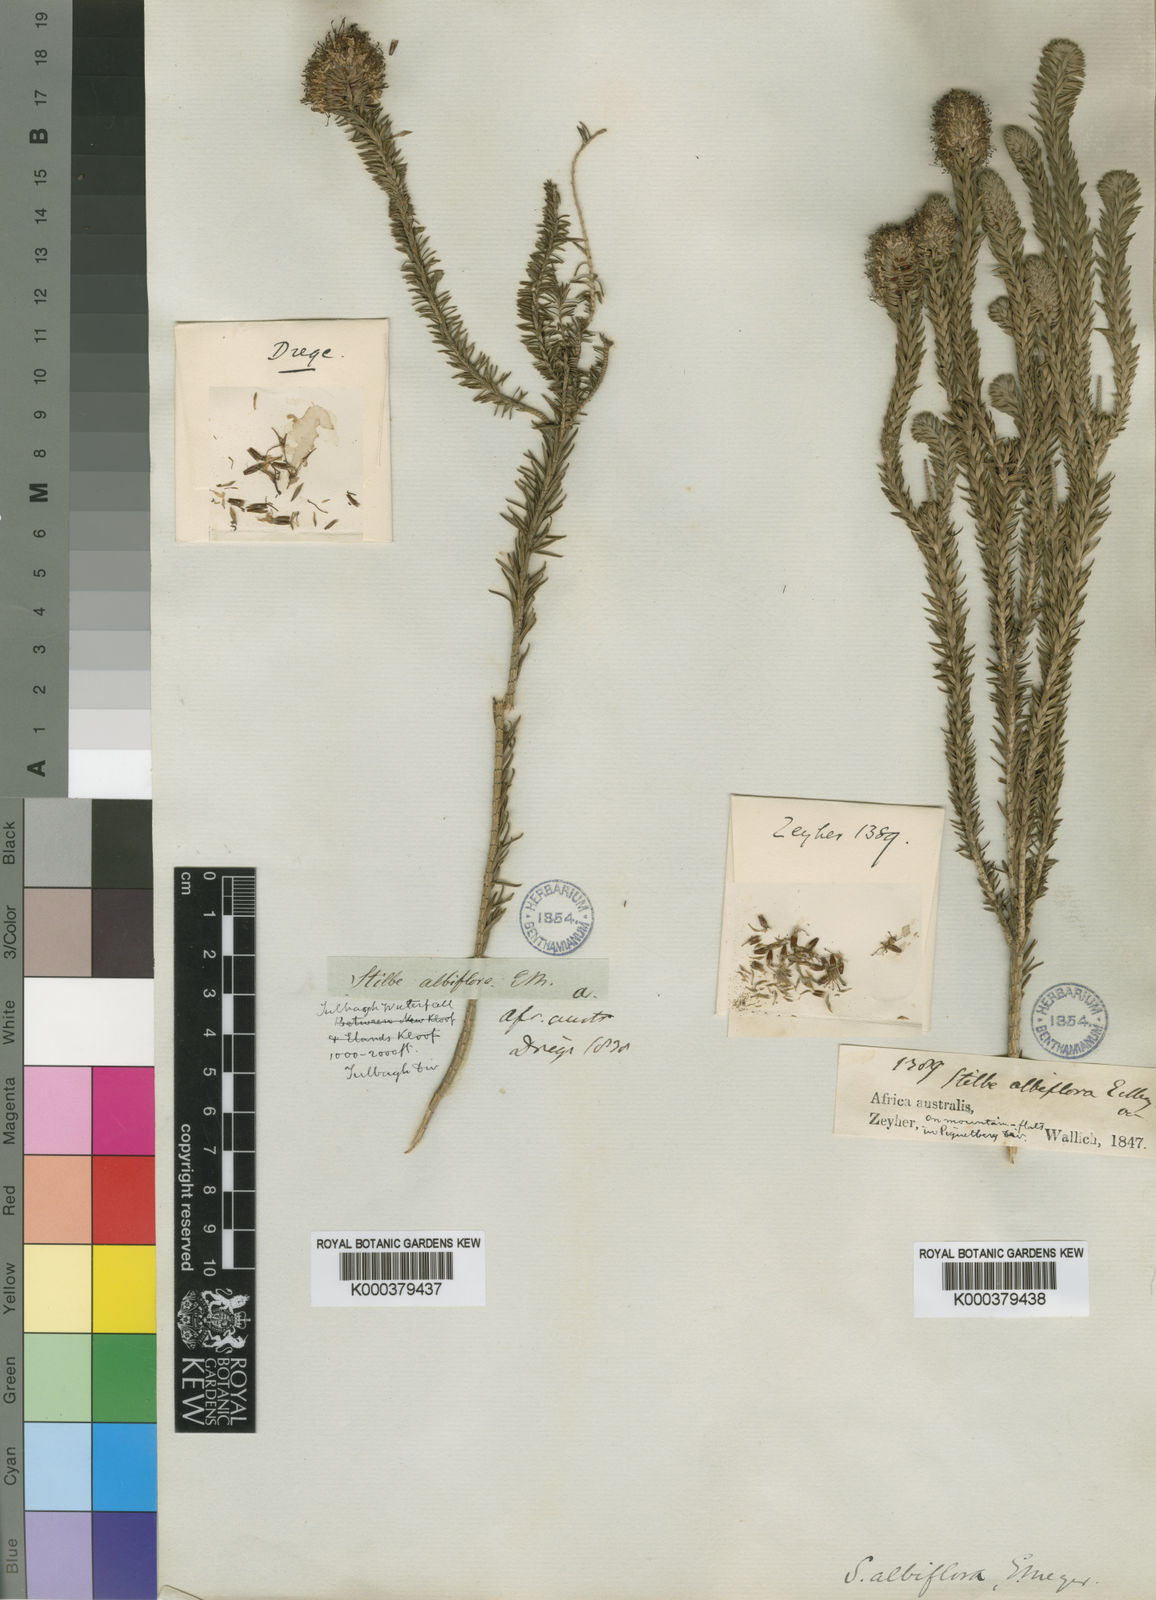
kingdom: Plantae
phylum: Tracheophyta
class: Magnoliopsida
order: Lamiales
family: Stilbaceae
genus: Stilbe
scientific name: Stilbe albiflora
